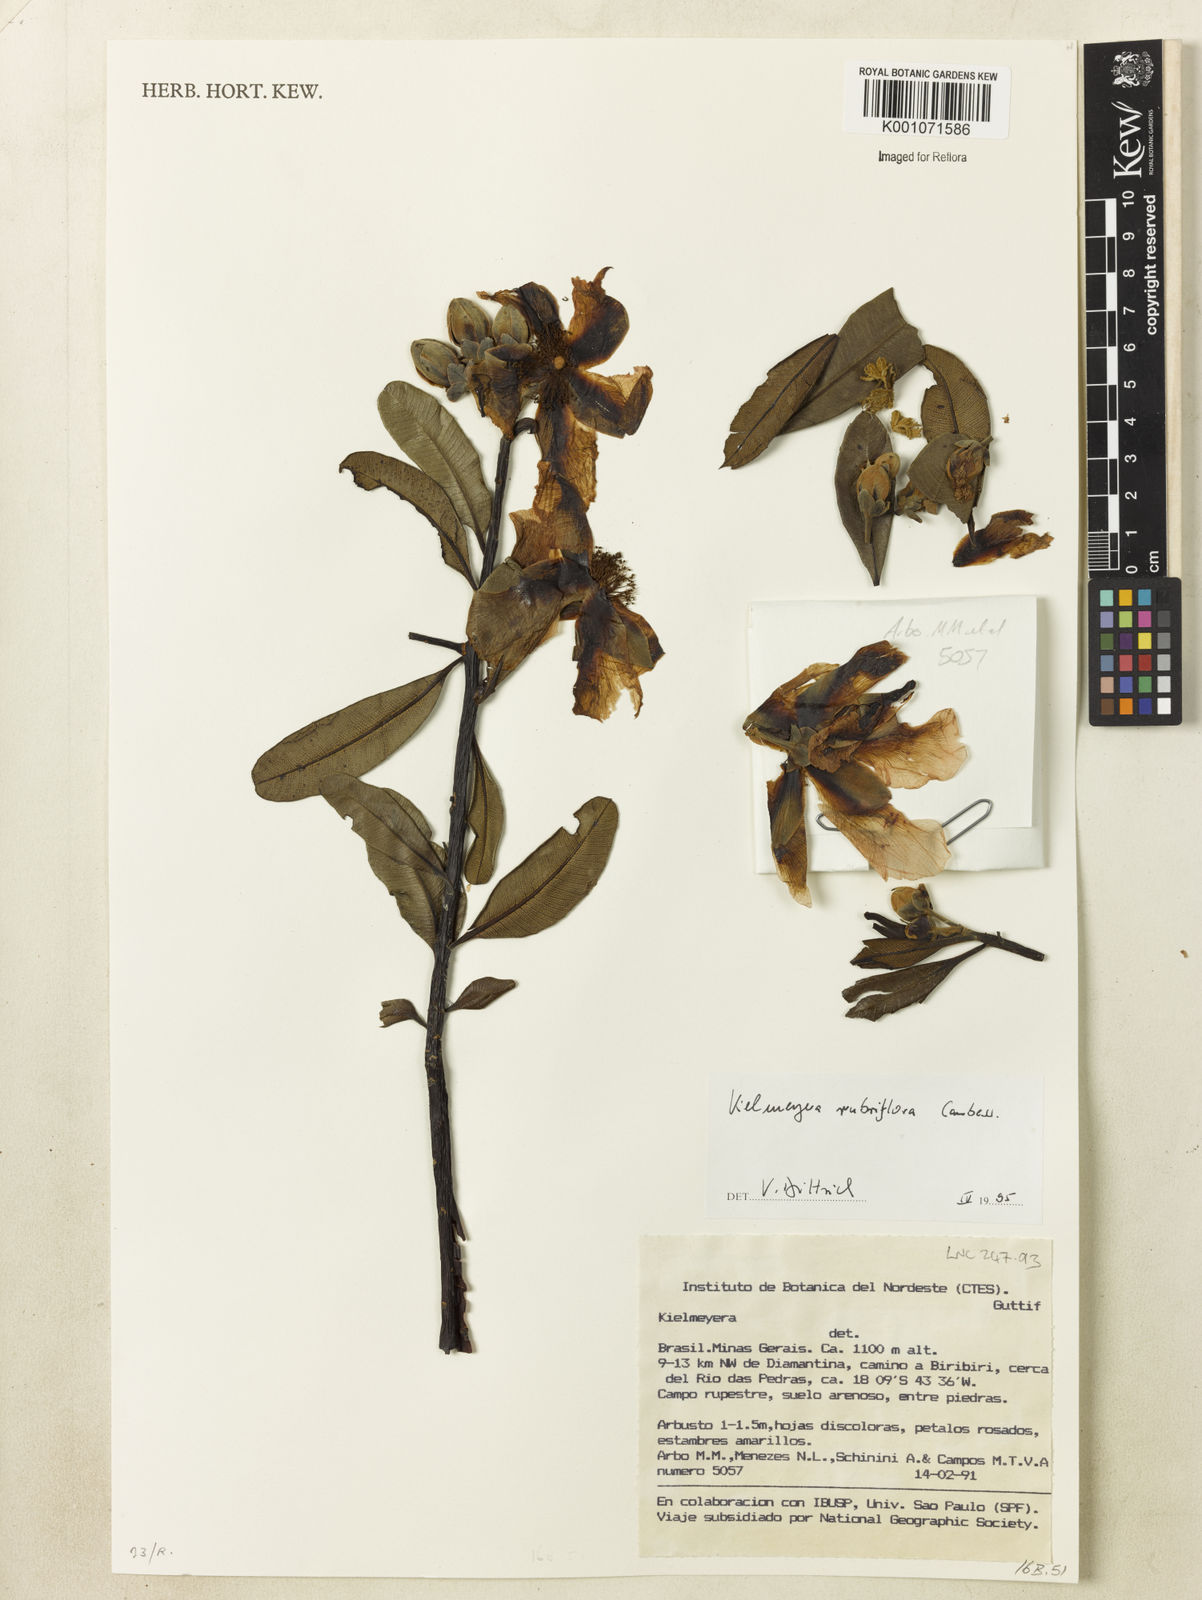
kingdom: Plantae
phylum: Tracheophyta
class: Magnoliopsida
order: Malpighiales
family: Calophyllaceae
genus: Kielmeyera
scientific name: Kielmeyera rubriflora
